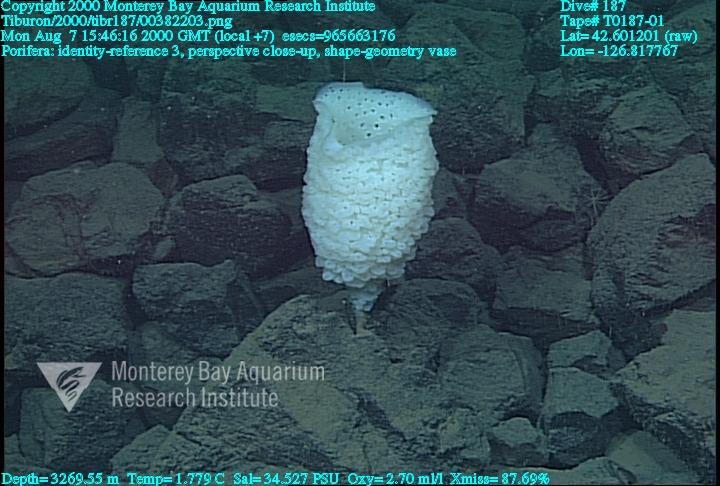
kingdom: Animalia
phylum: Porifera
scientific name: Porifera
